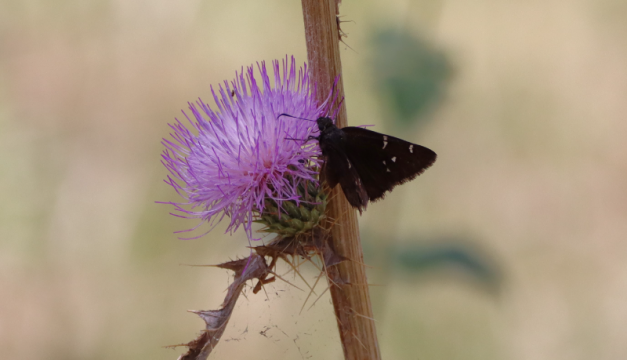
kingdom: Animalia
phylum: Arthropoda
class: Insecta
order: Lepidoptera
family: Hesperiidae
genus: Autochton
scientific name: Autochton
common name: Northern Cloudywing
